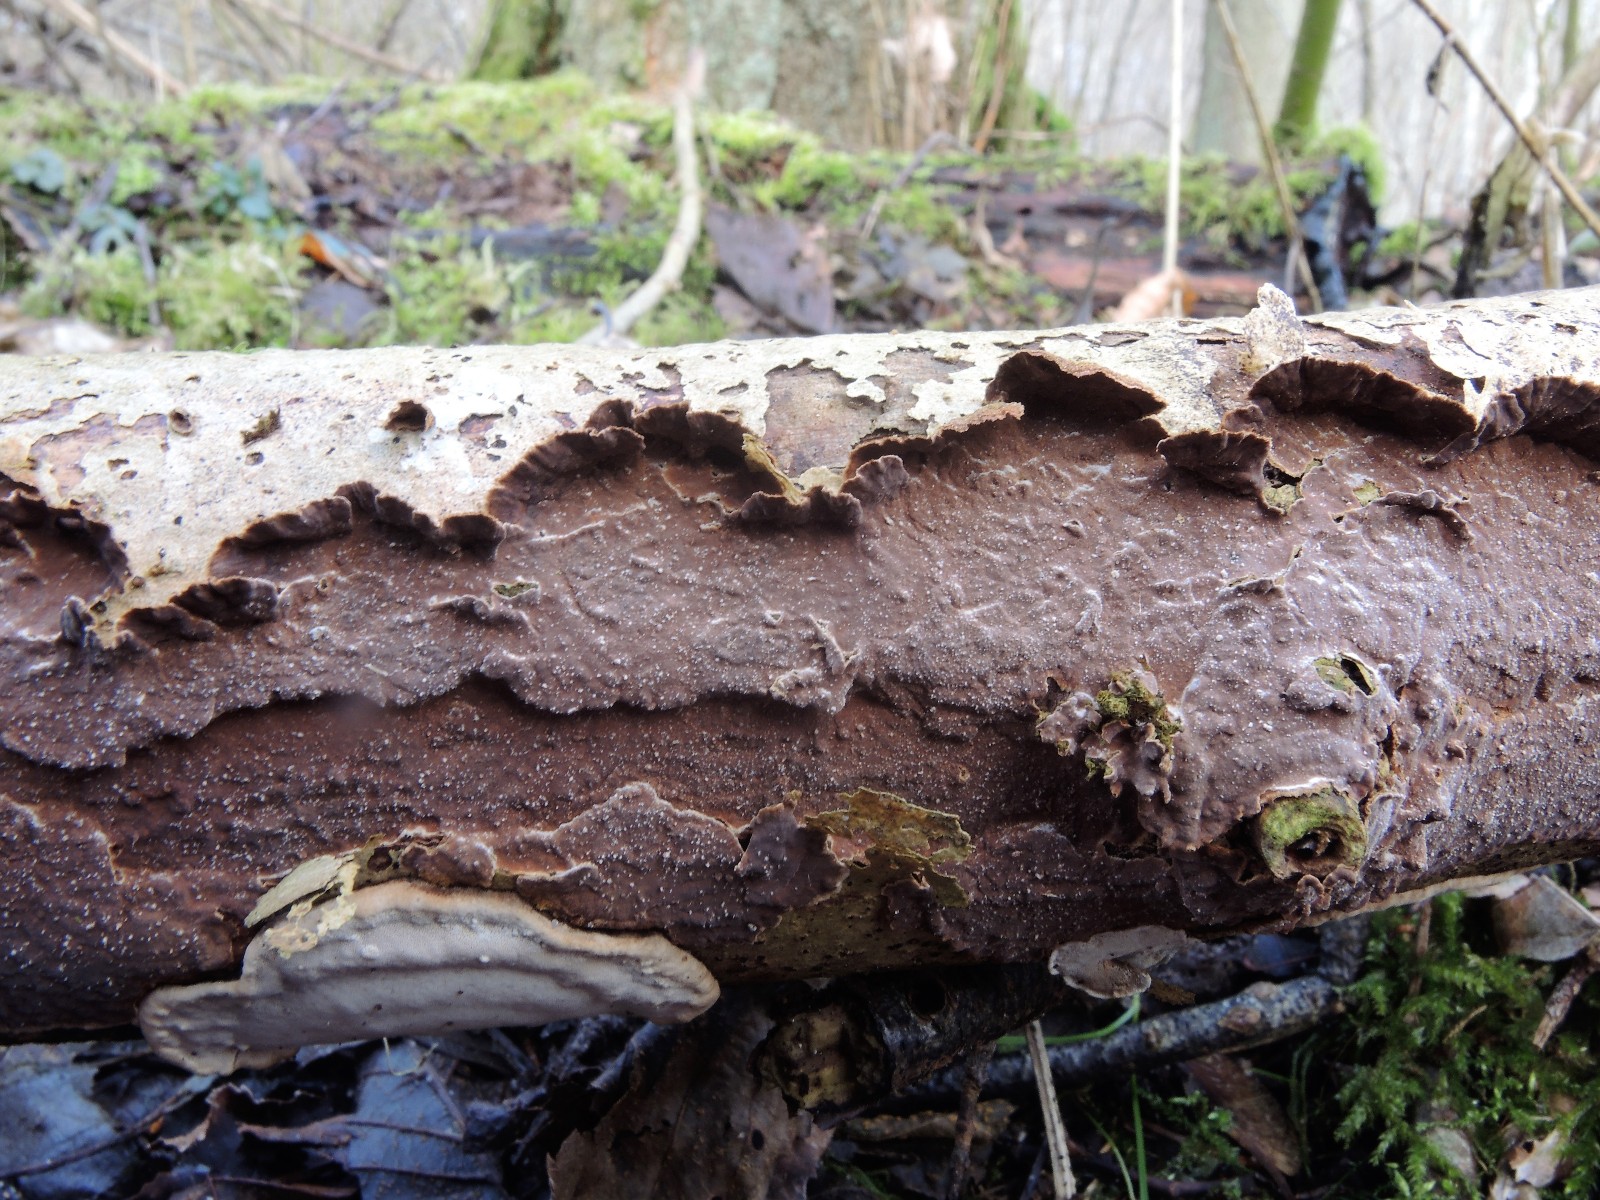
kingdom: Fungi
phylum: Basidiomycota
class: Agaricomycetes
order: Hymenochaetales
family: Hymenochaetaceae
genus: Hydnoporia
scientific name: Hydnoporia tabacina
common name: tobaksbrun ruslædersvamp
